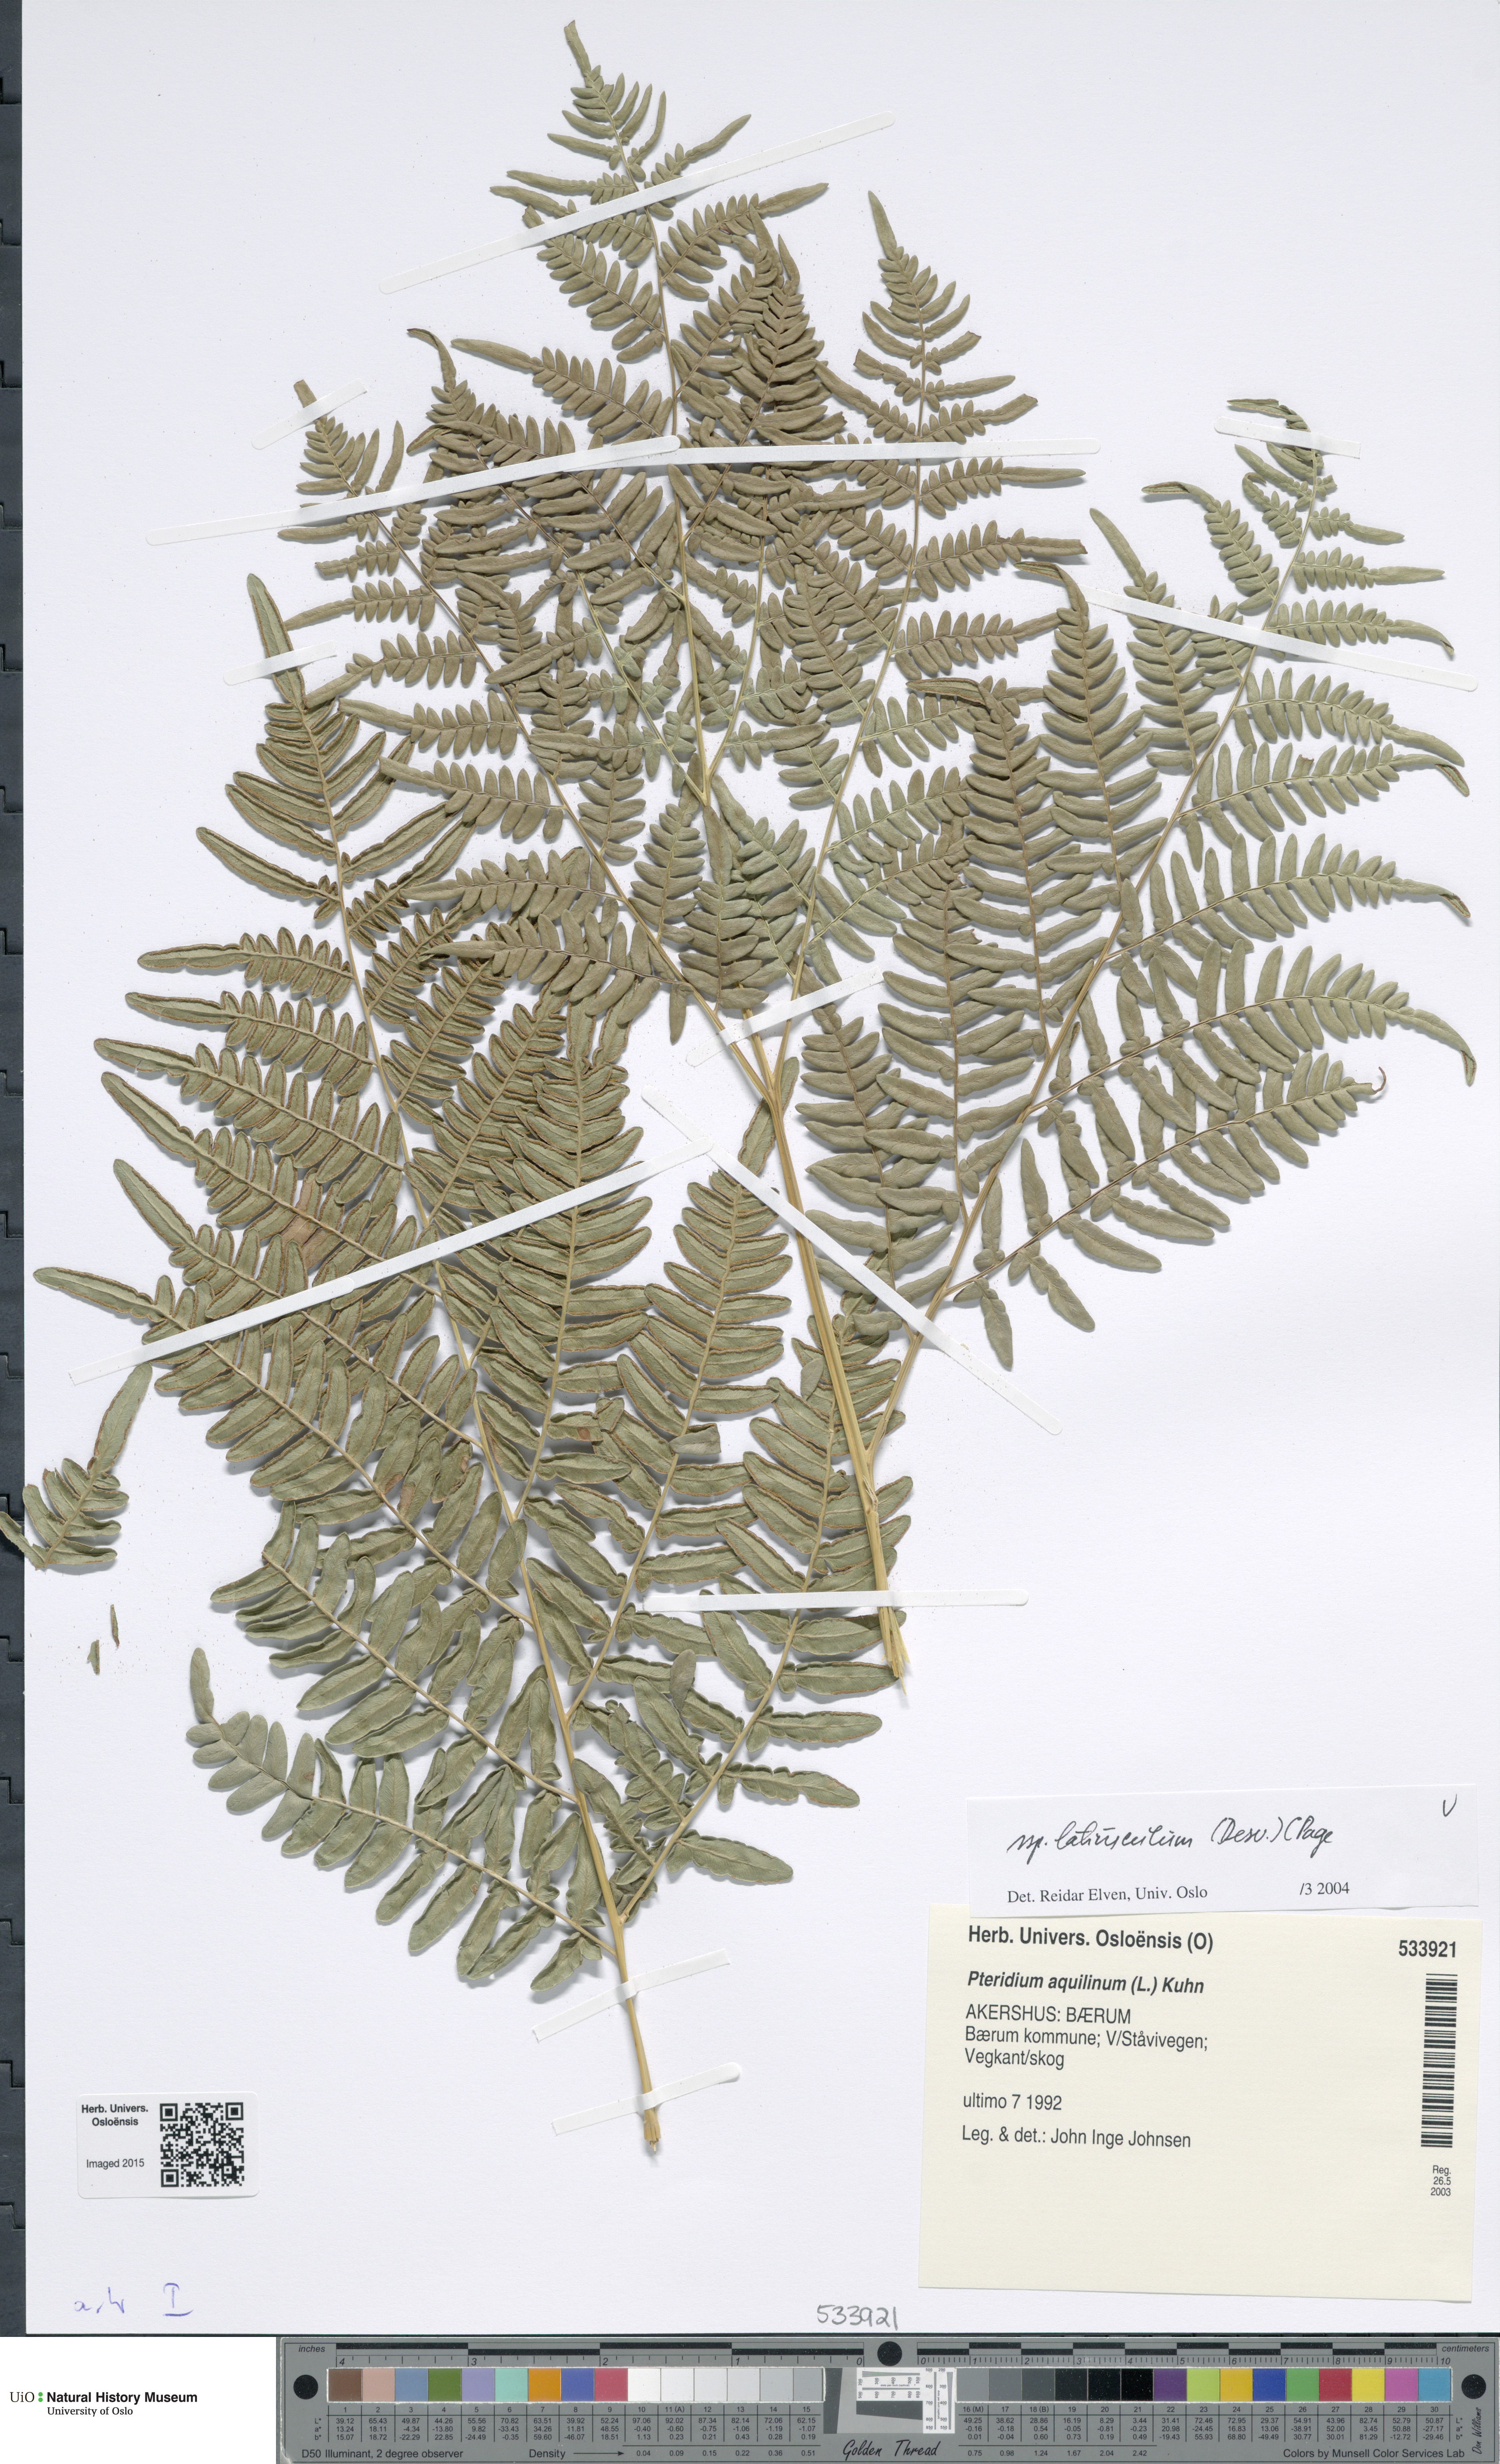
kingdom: Plantae
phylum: Tracheophyta
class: Polypodiopsida
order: Polypodiales
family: Dennstaedtiaceae
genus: Pteridium
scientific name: Pteridium aquilinum
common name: Bracken
